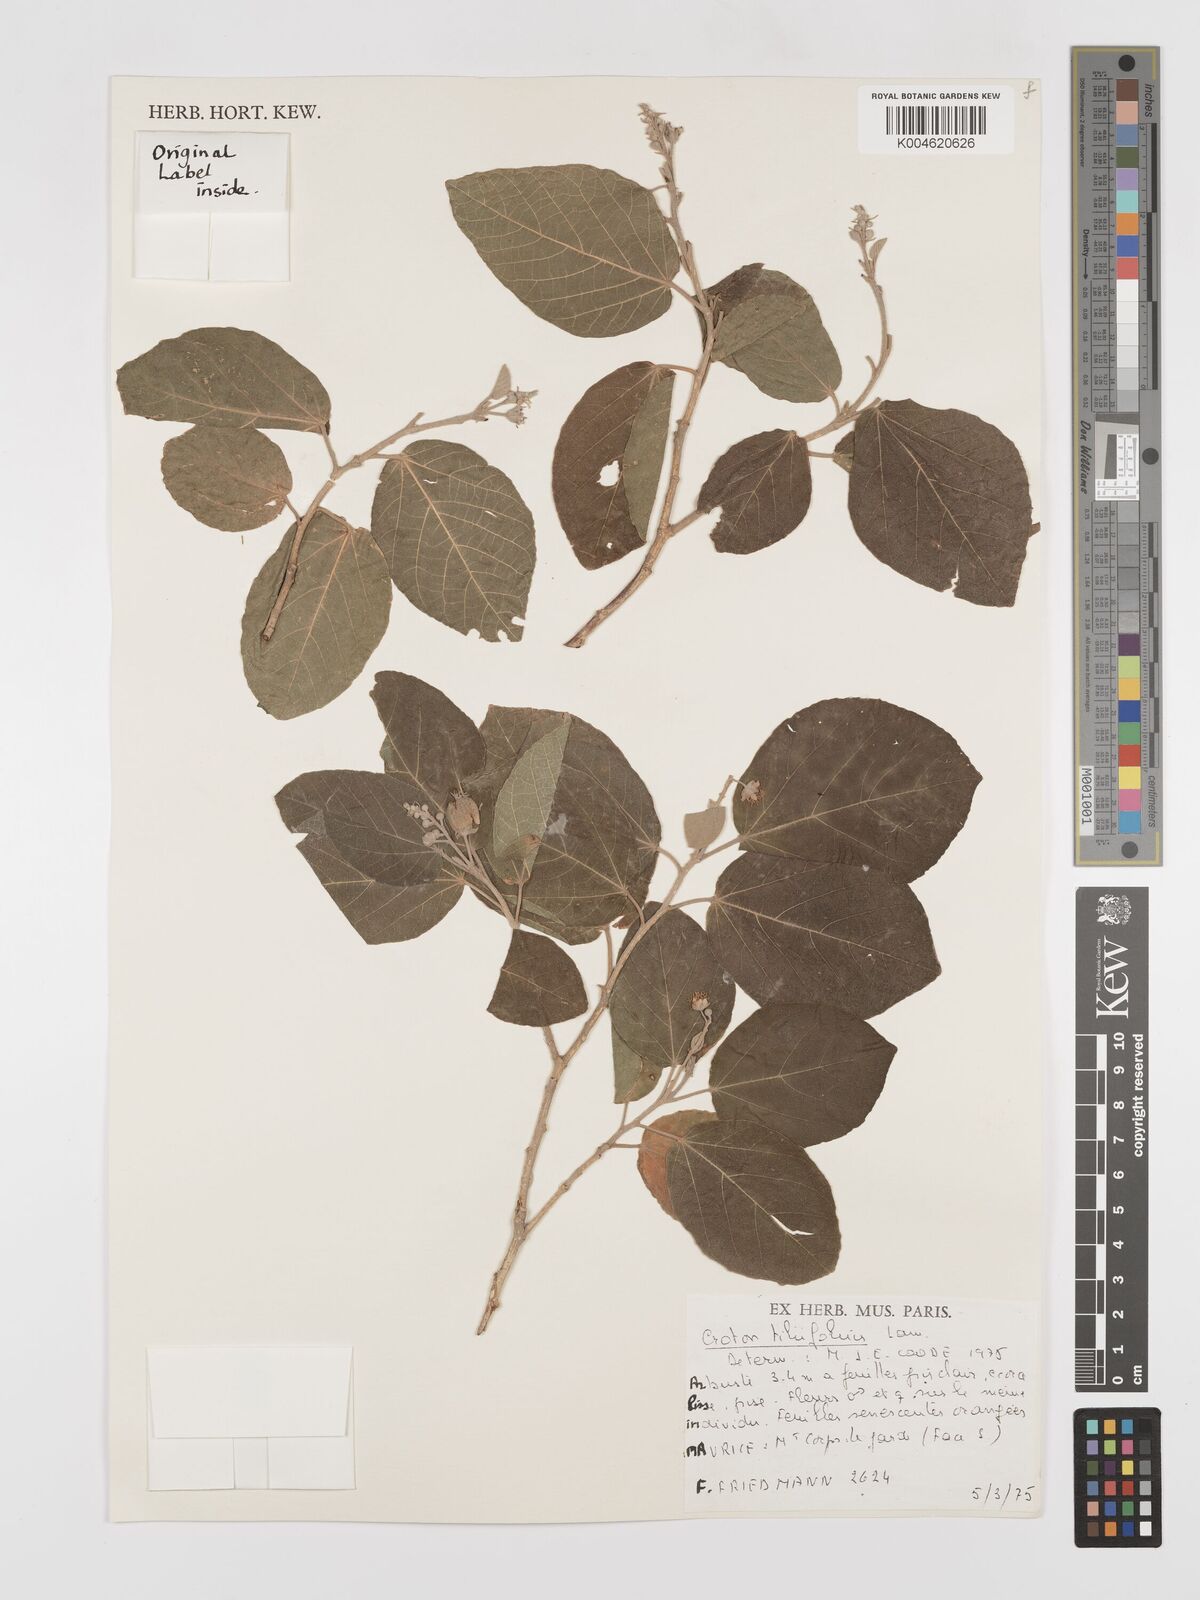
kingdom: Plantae
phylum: Tracheophyta
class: Magnoliopsida
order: Malpighiales
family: Euphorbiaceae
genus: Croton
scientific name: Croton
